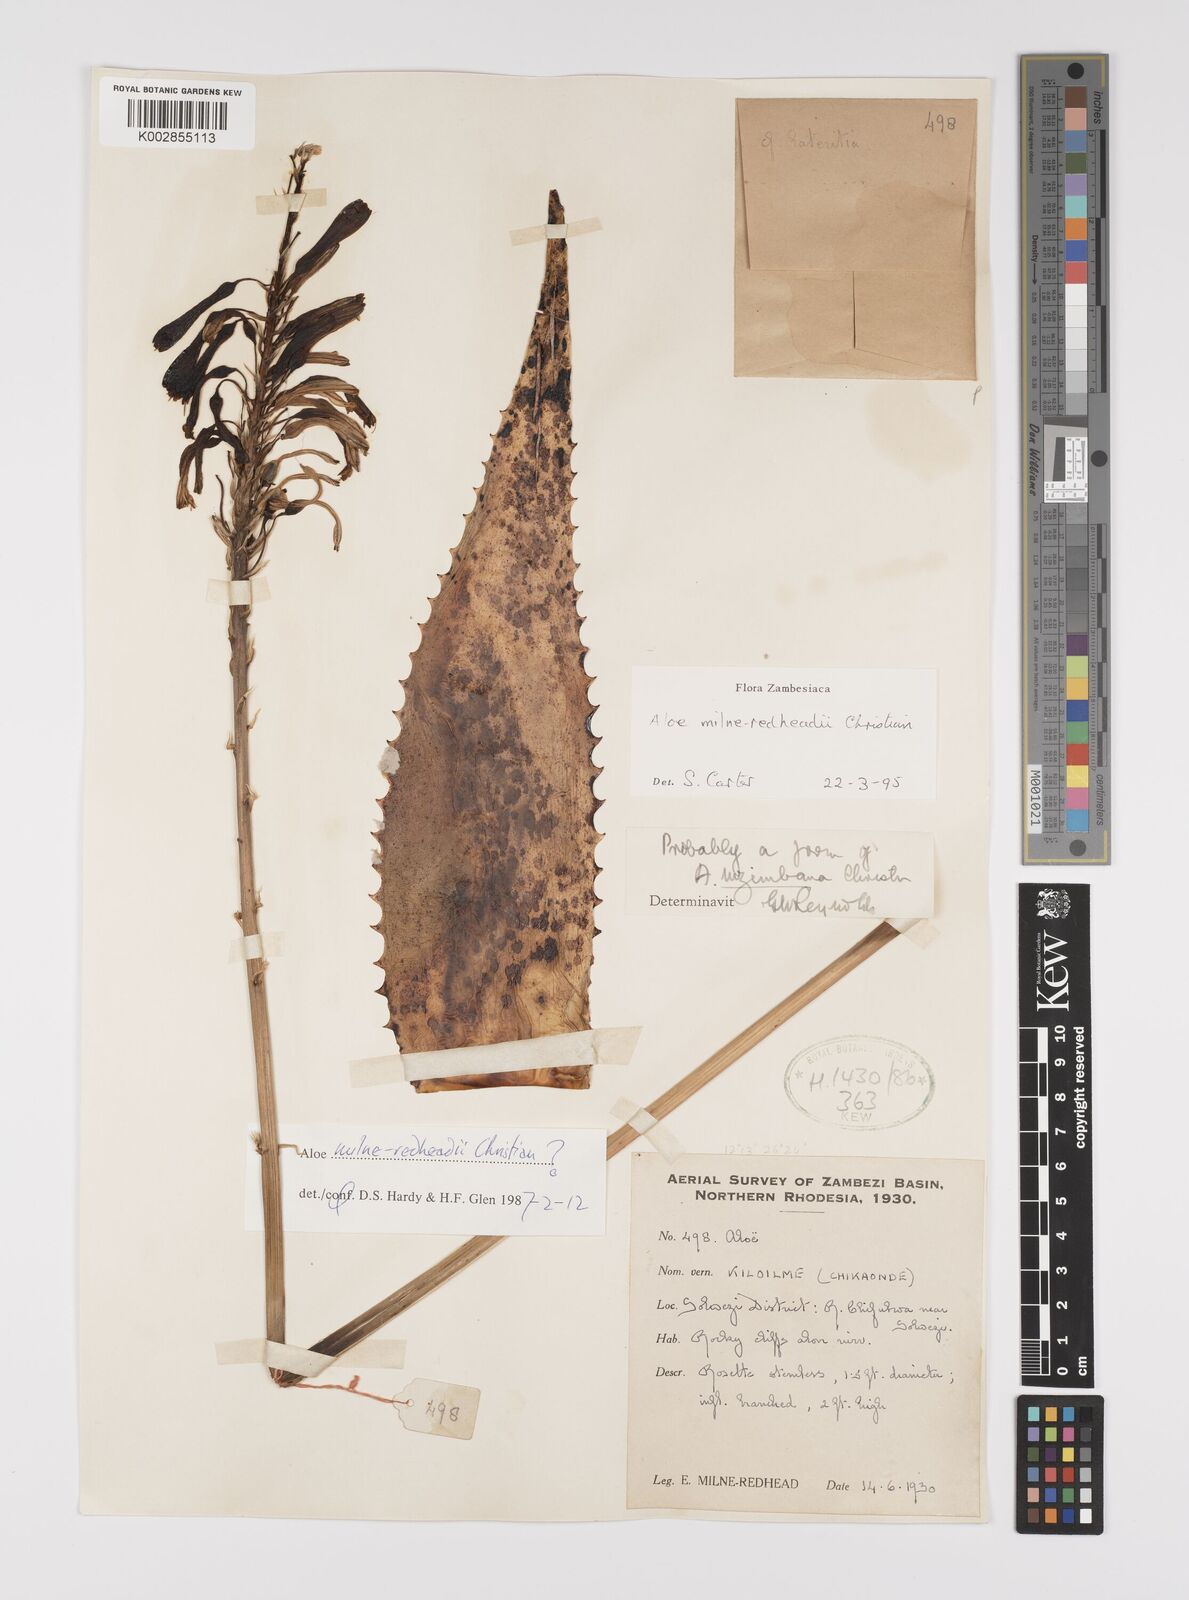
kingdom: Plantae
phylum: Tracheophyta
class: Liliopsida
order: Asparagales
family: Asphodelaceae
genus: Aloe
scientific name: Aloe milne-redheadii
